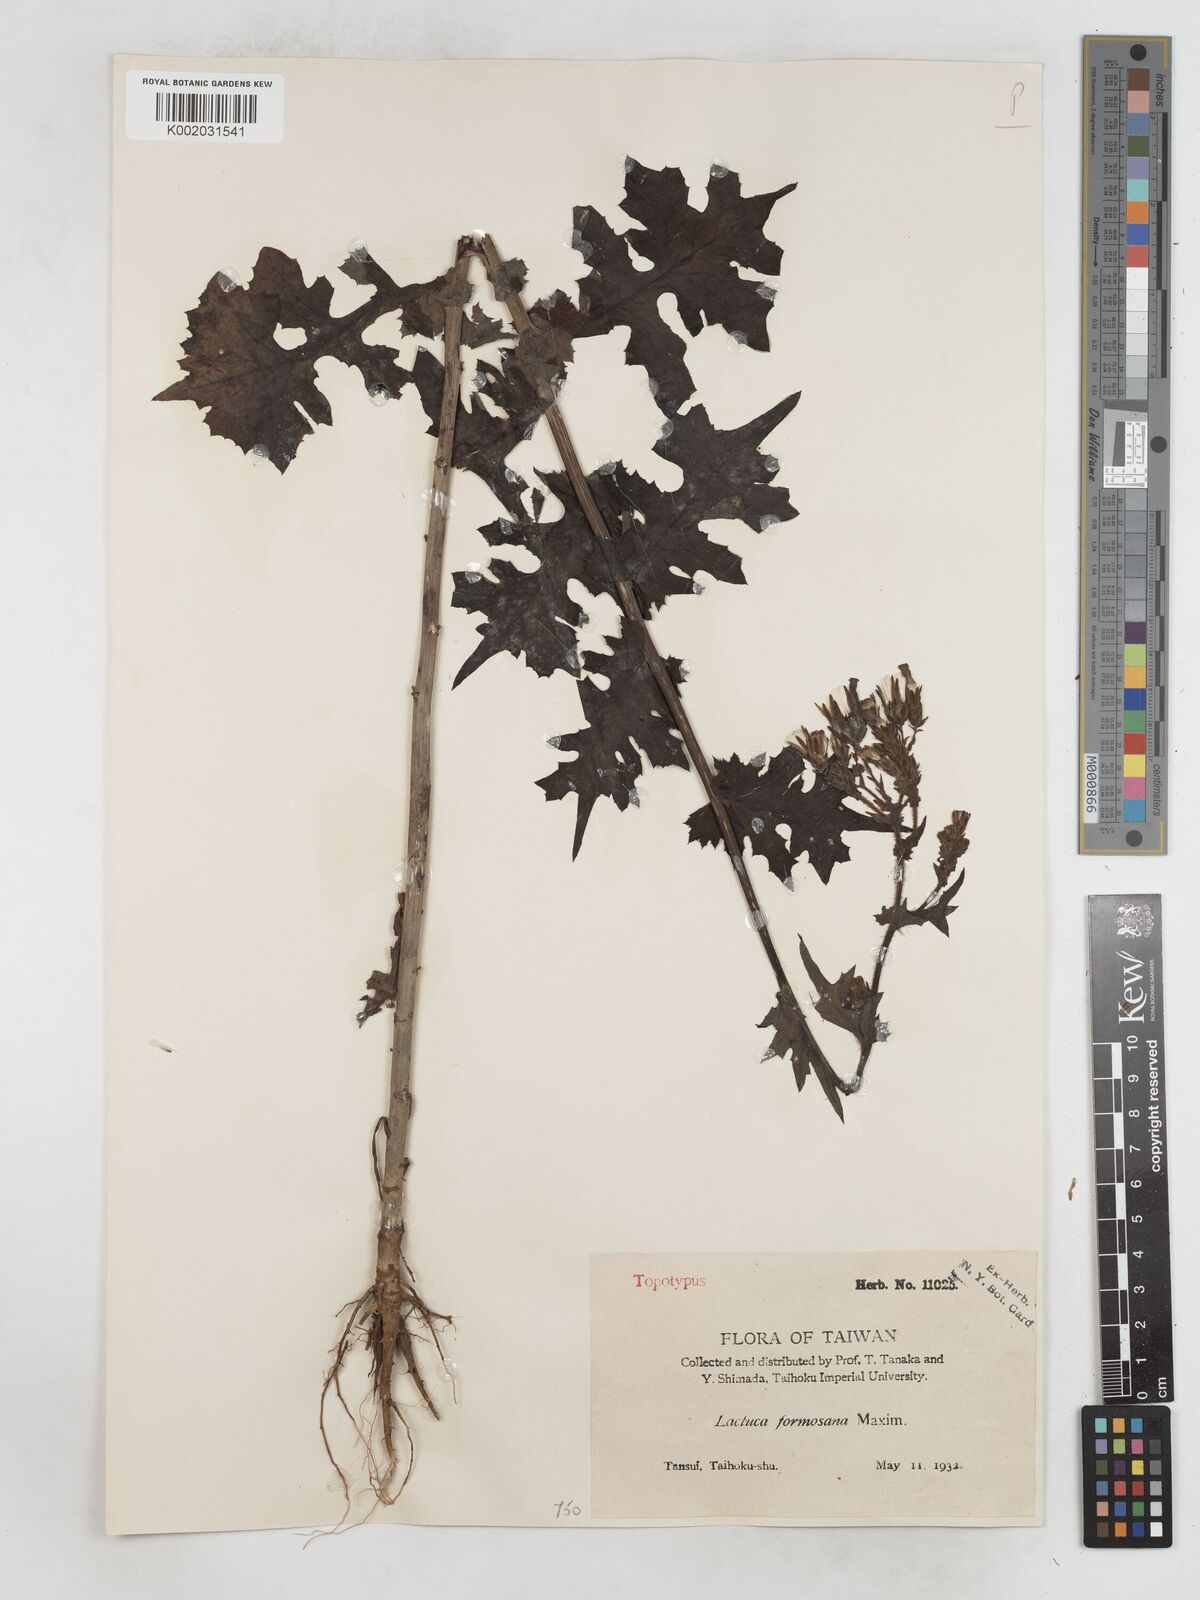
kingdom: Plantae
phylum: Tracheophyta
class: Magnoliopsida
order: Asterales
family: Asteraceae
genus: Lactuca
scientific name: Lactuca formosana
